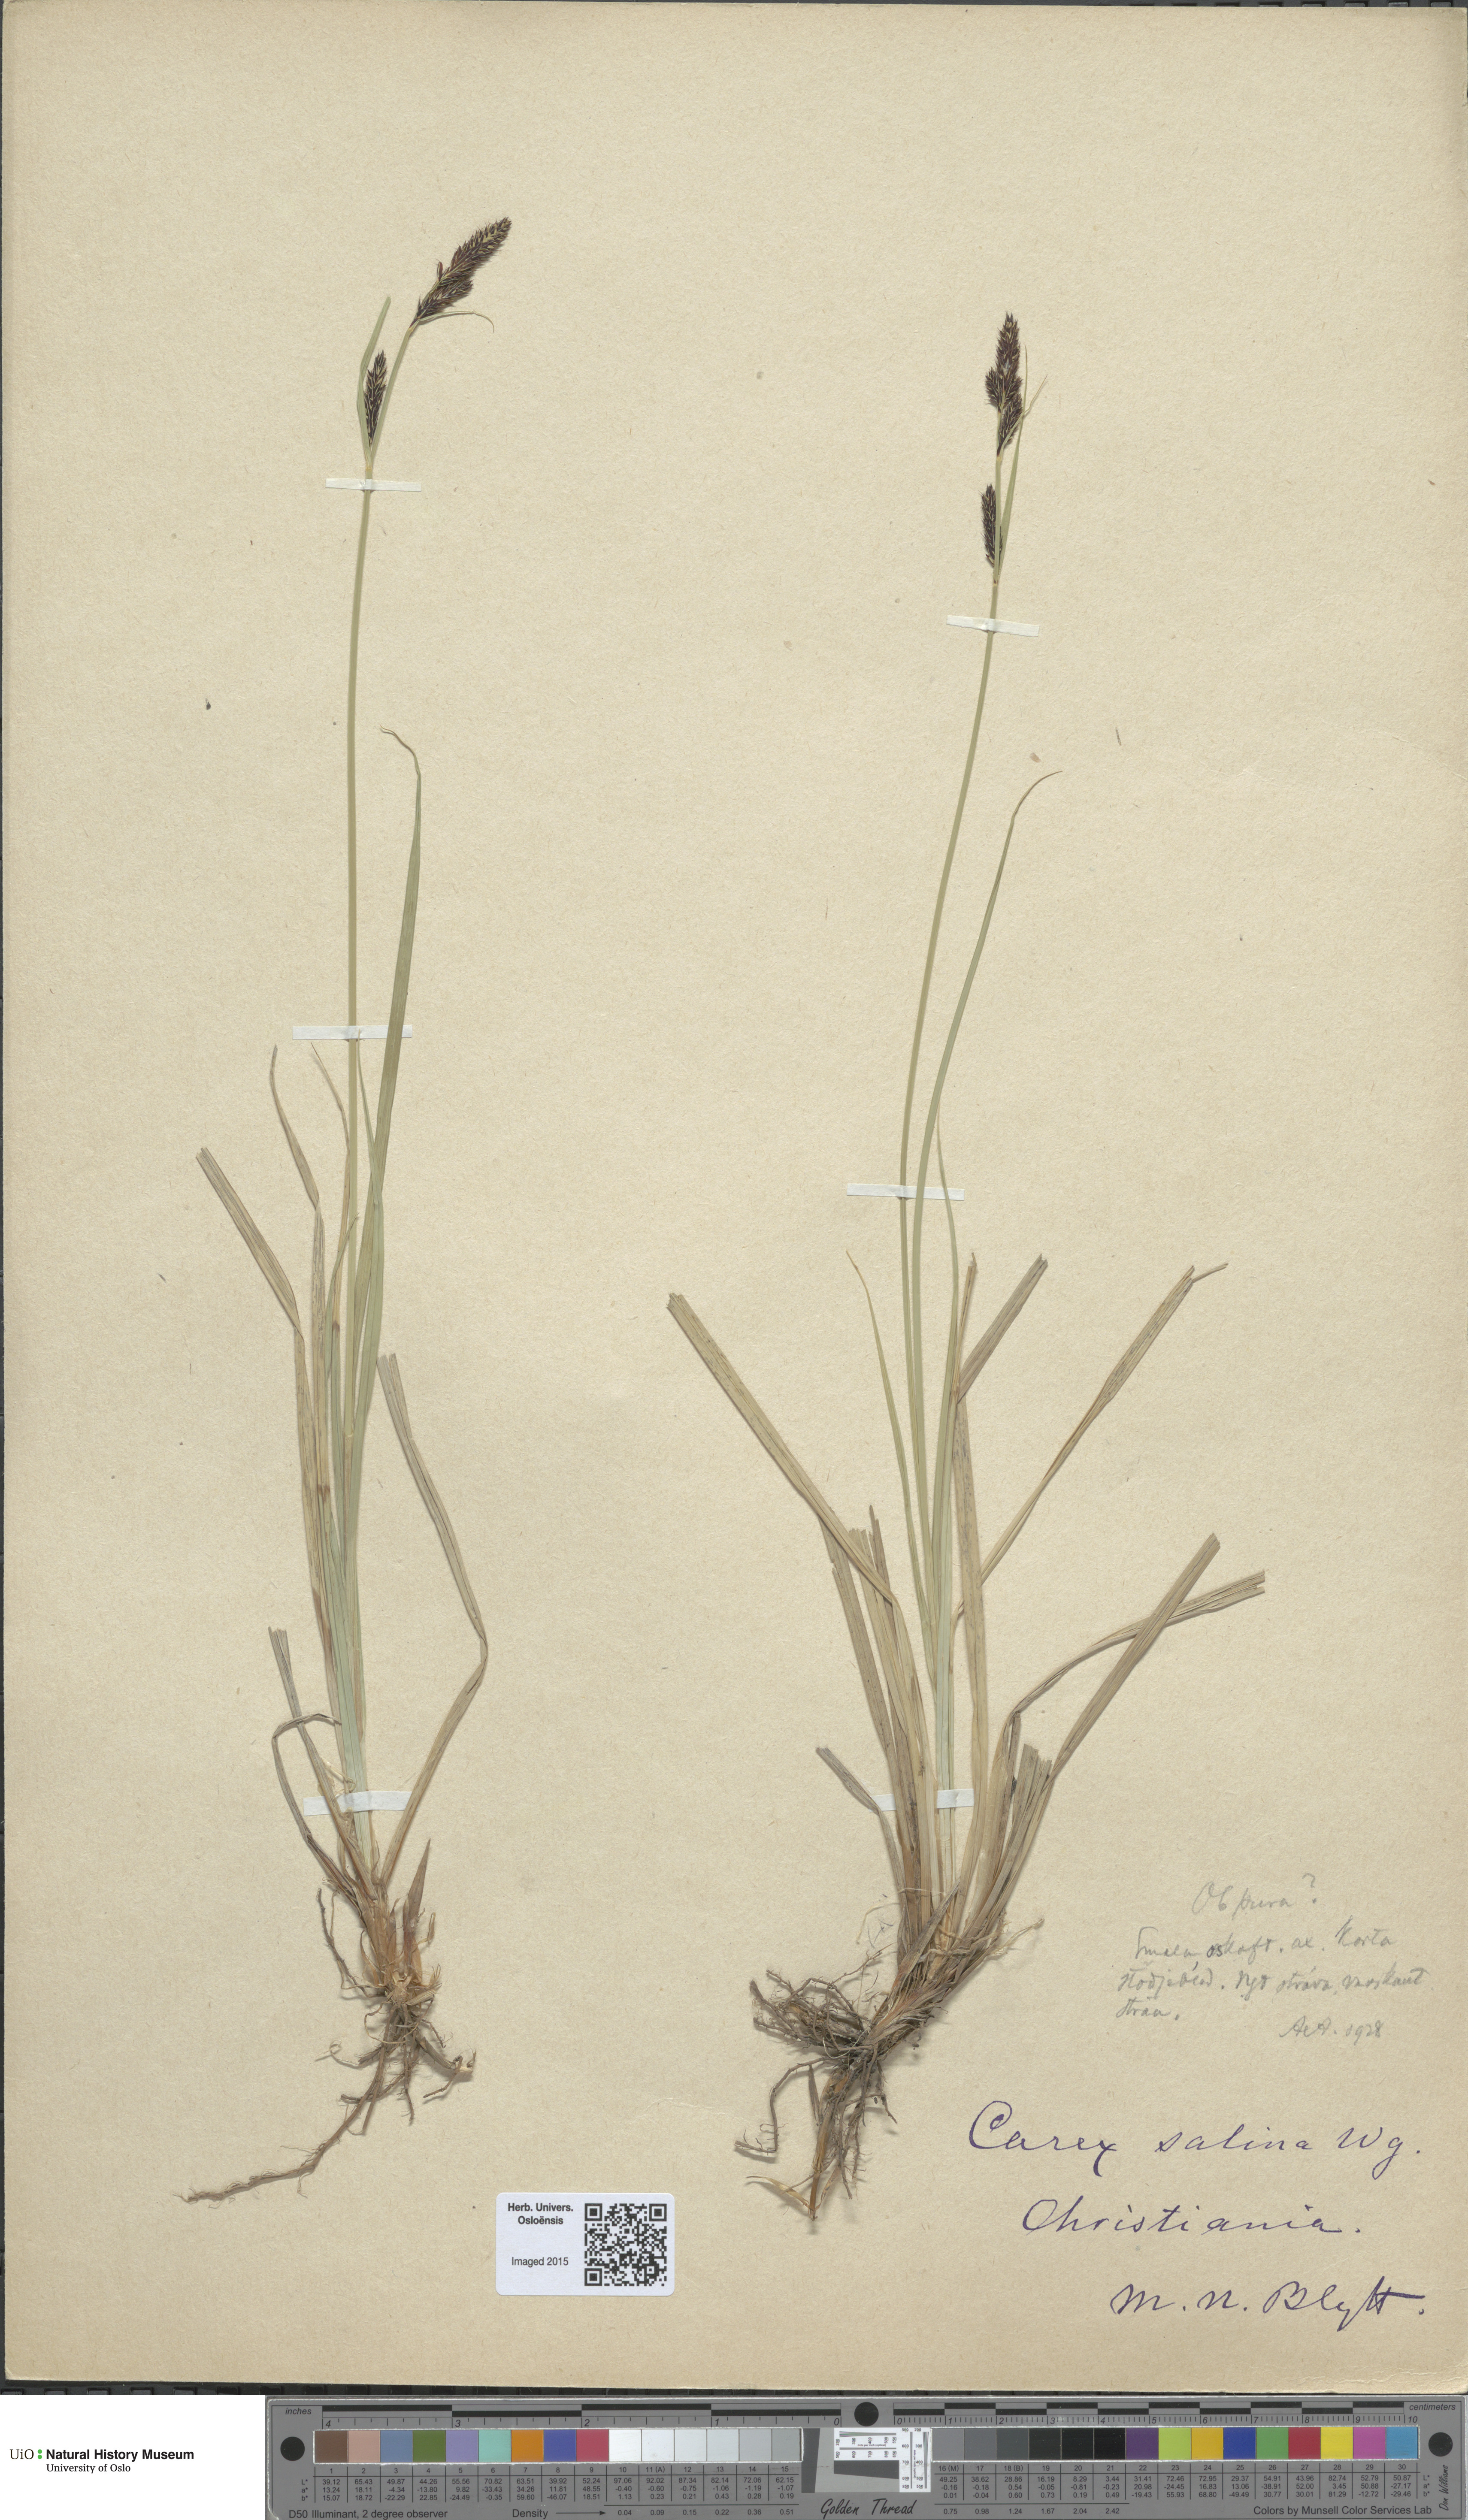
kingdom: Plantae
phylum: Tracheophyta
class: Liliopsida
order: Poales
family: Cyperaceae
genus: Carex
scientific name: Carex vacillans
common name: Sedge
